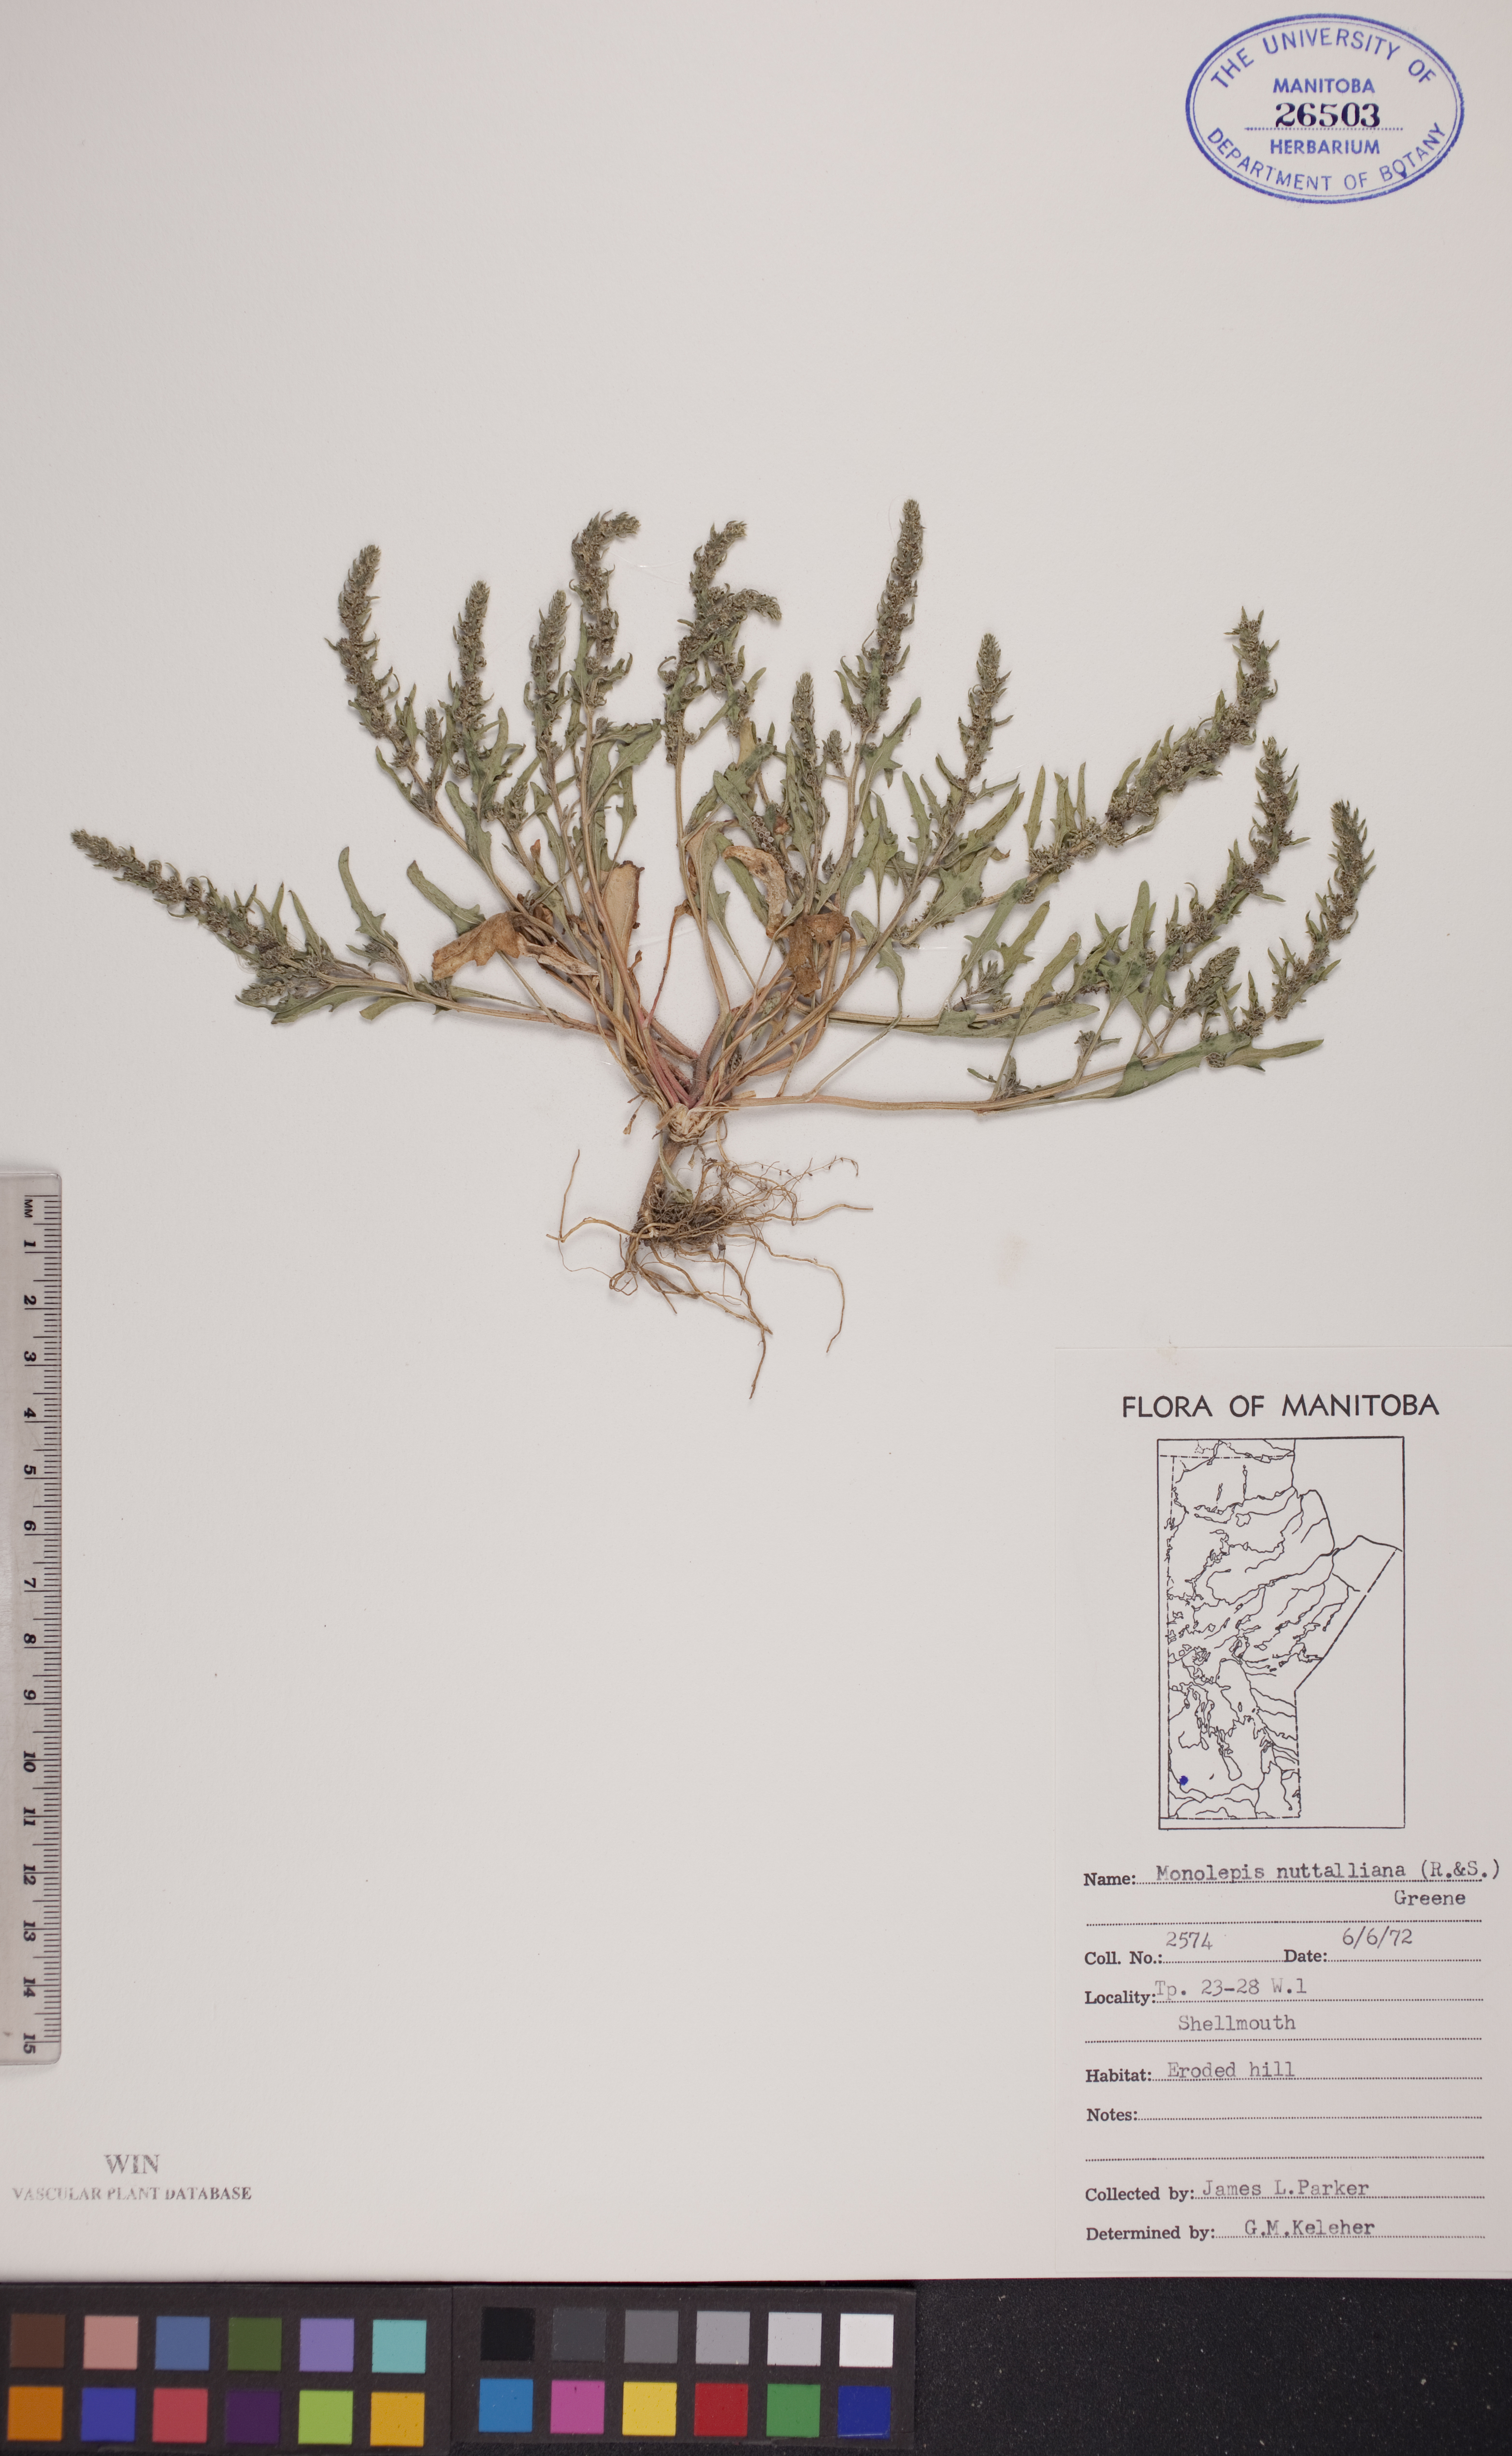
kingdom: Plantae
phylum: Tracheophyta
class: Magnoliopsida
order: Caryophyllales
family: Amaranthaceae
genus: Blitum
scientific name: Blitum nuttallianum
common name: Poverty-weed
